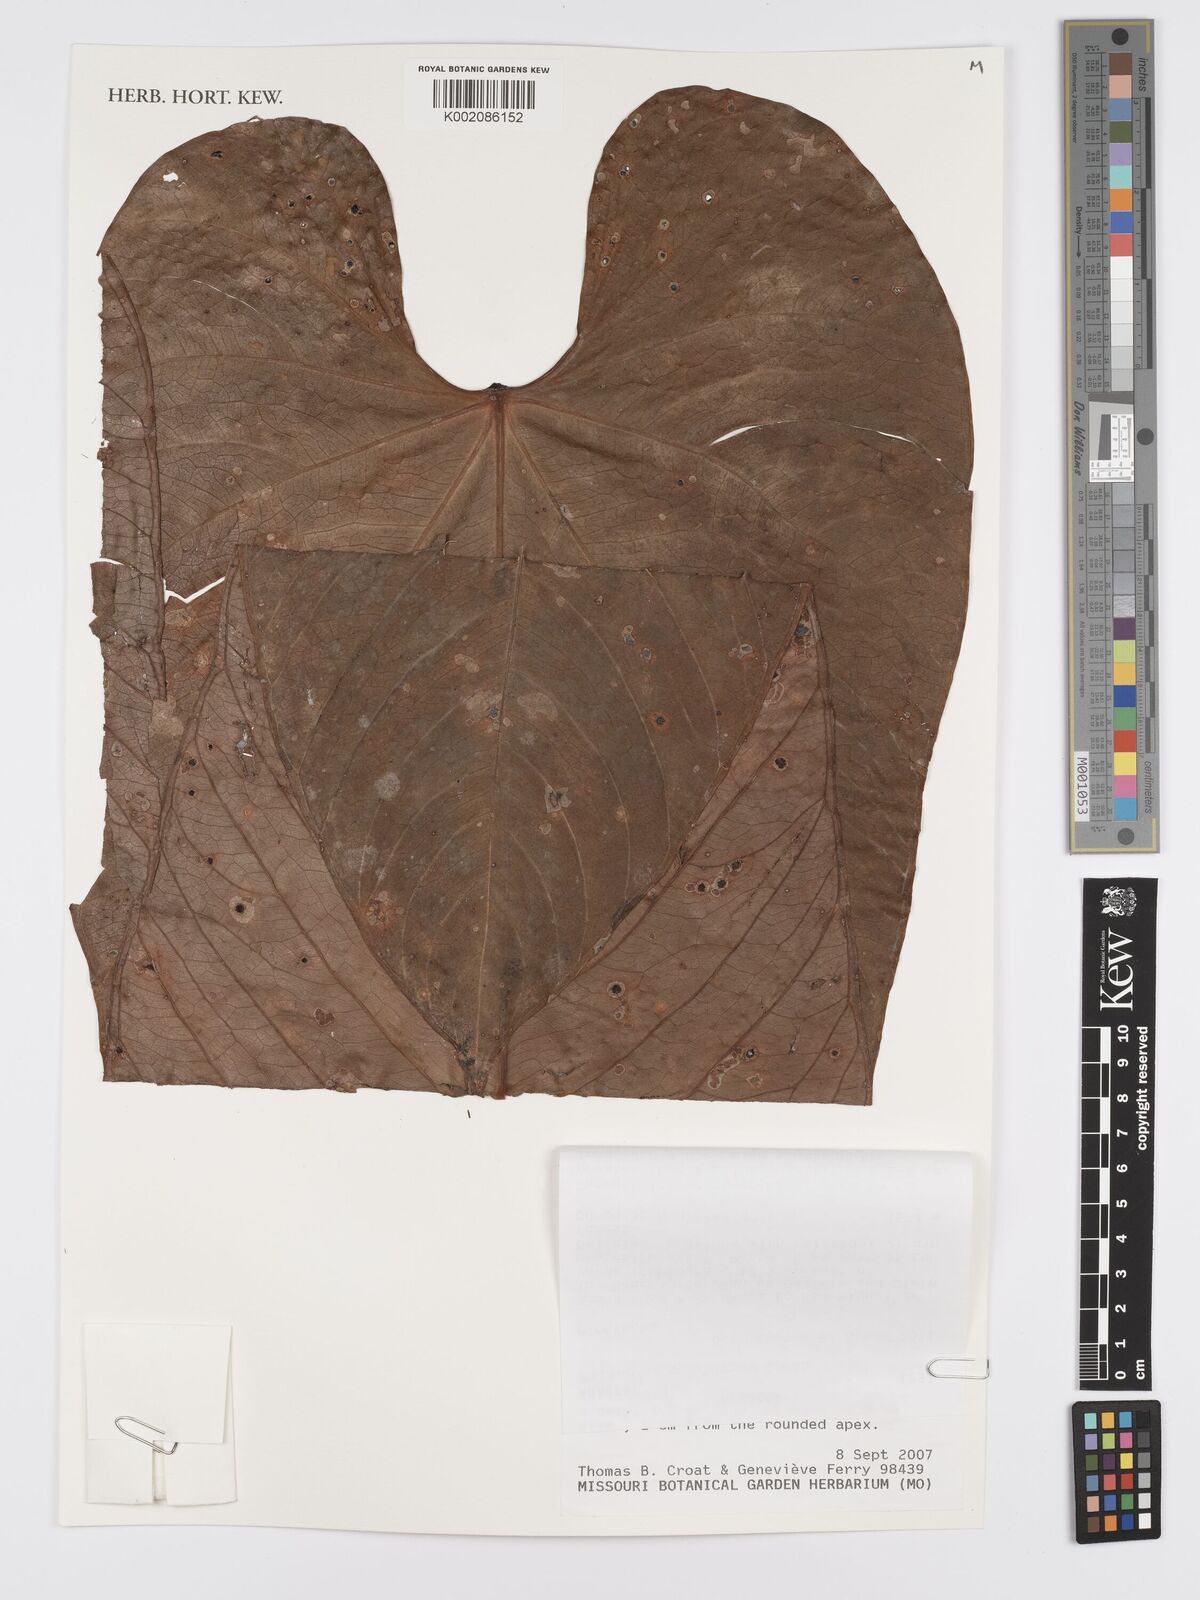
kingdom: Plantae
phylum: Tracheophyta
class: Liliopsida
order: Alismatales
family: Araceae
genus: Anthurium
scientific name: Anthurium genferryae
